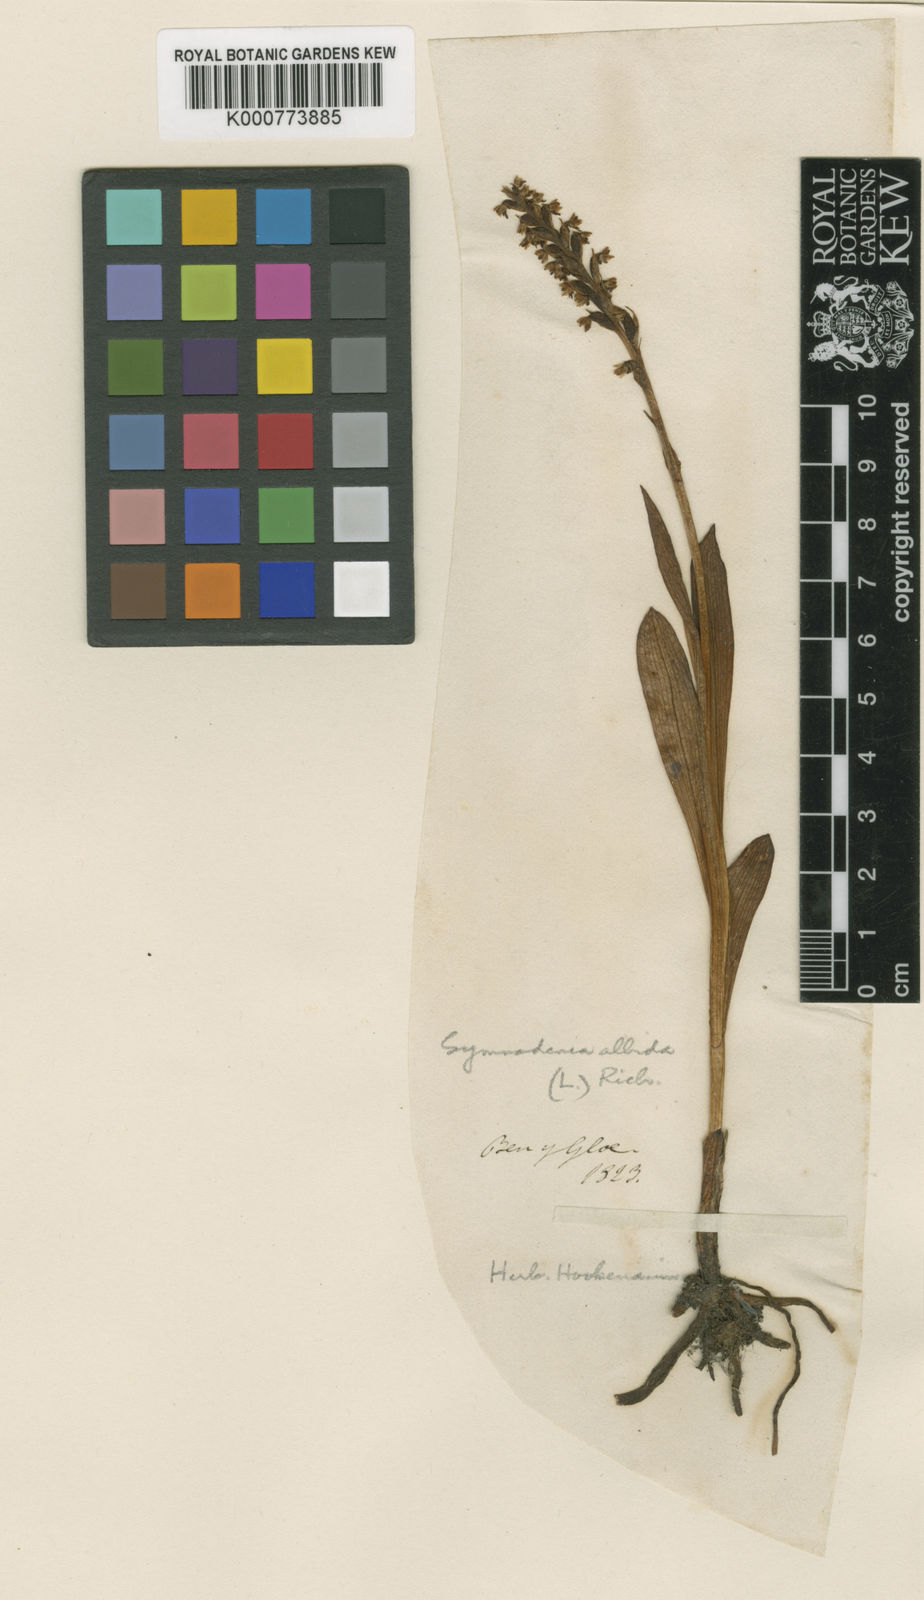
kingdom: Plantae
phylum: Tracheophyta
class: Liliopsida
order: Asparagales
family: Orchidaceae
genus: Pseudorchis
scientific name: Pseudorchis
